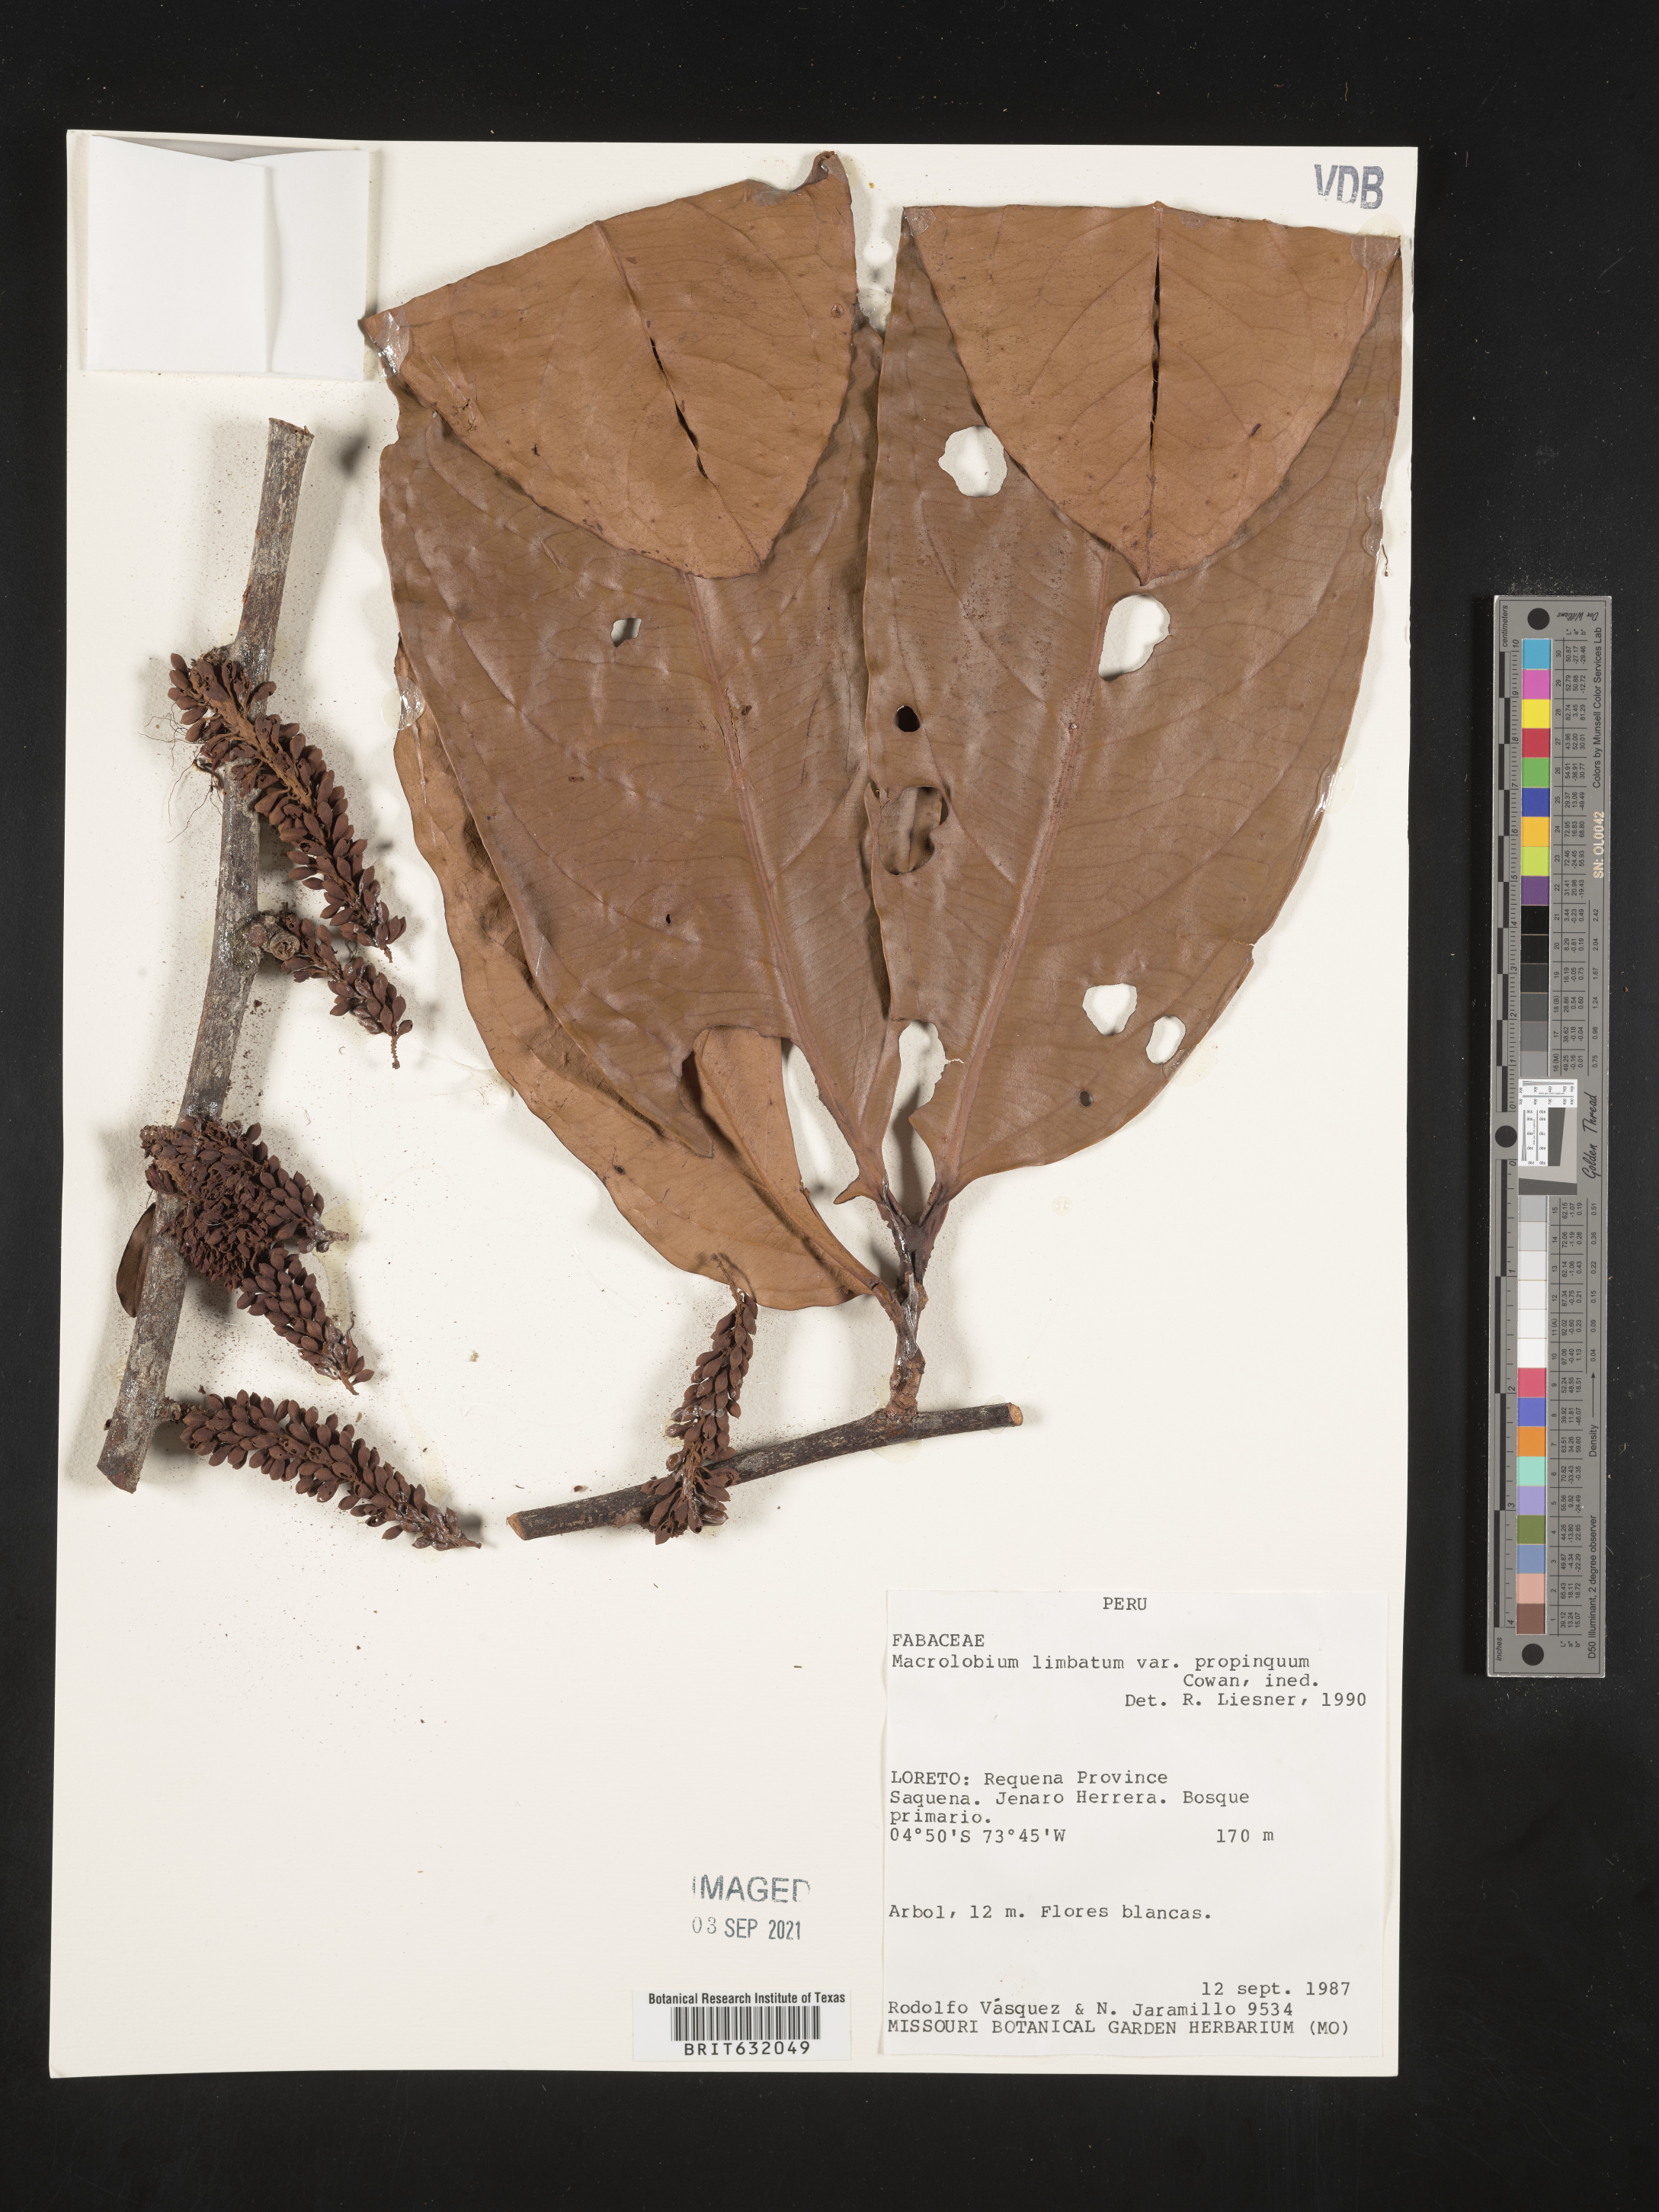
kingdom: Plantae
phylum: Tracheophyta
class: Magnoliopsida
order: Fabales
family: Fabaceae
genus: Macrolobium
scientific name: Macrolobium
